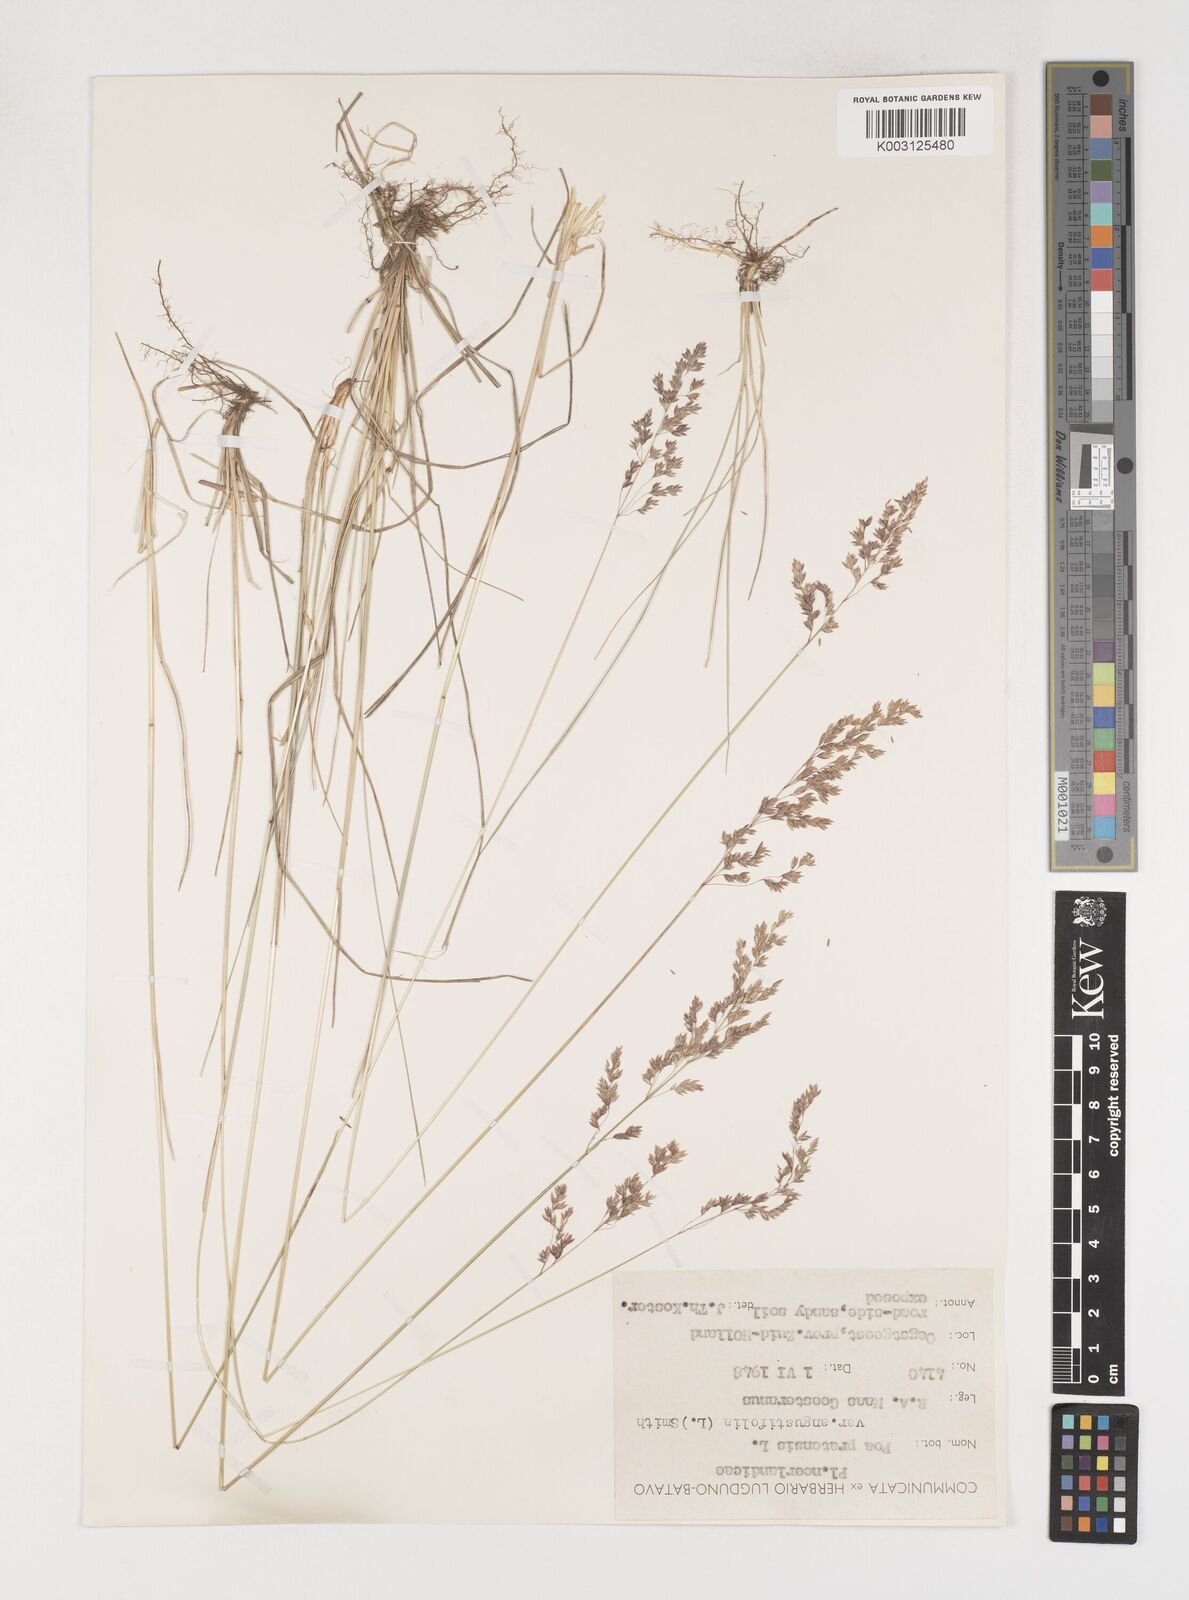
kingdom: Plantae
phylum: Tracheophyta
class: Liliopsida
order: Poales
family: Poaceae
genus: Poa
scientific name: Poa angustifolia
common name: Narrow-leaved meadow-grass
